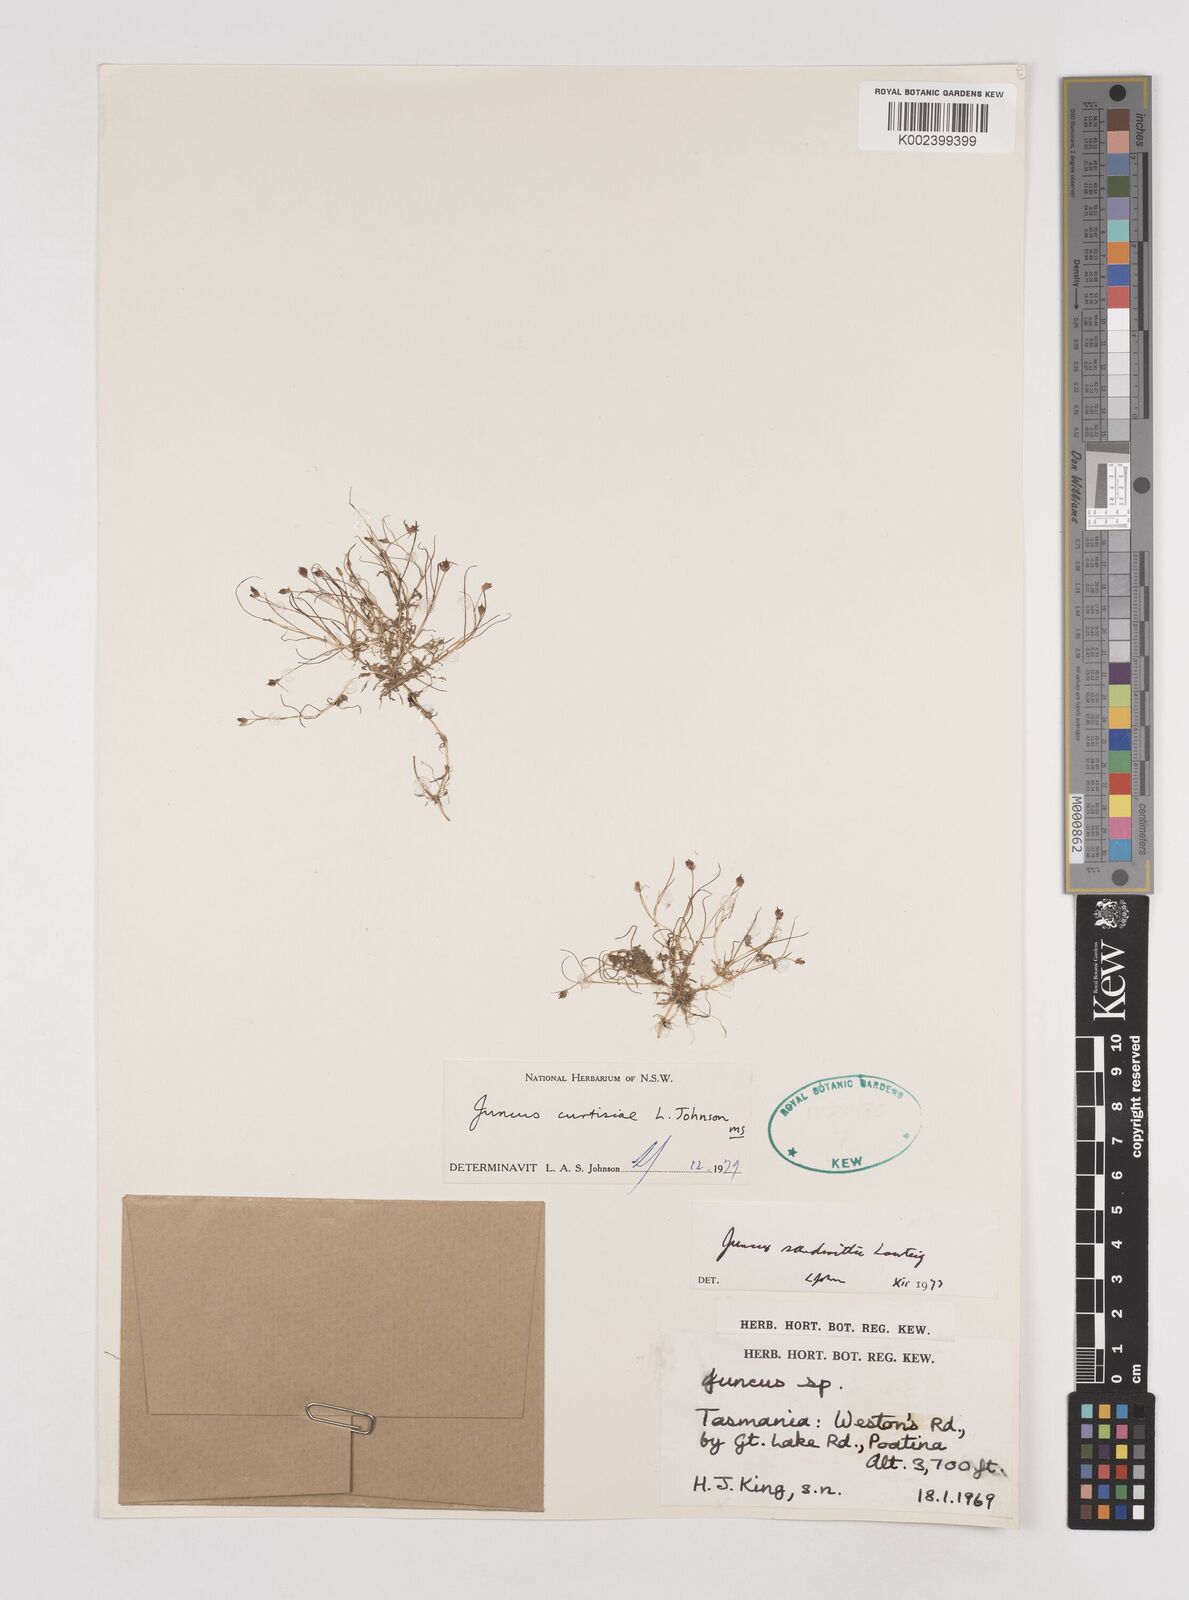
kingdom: Plantae
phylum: Tracheophyta
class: Liliopsida
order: Poales
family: Juncaceae
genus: Juncus
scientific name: Juncus curtisiae
